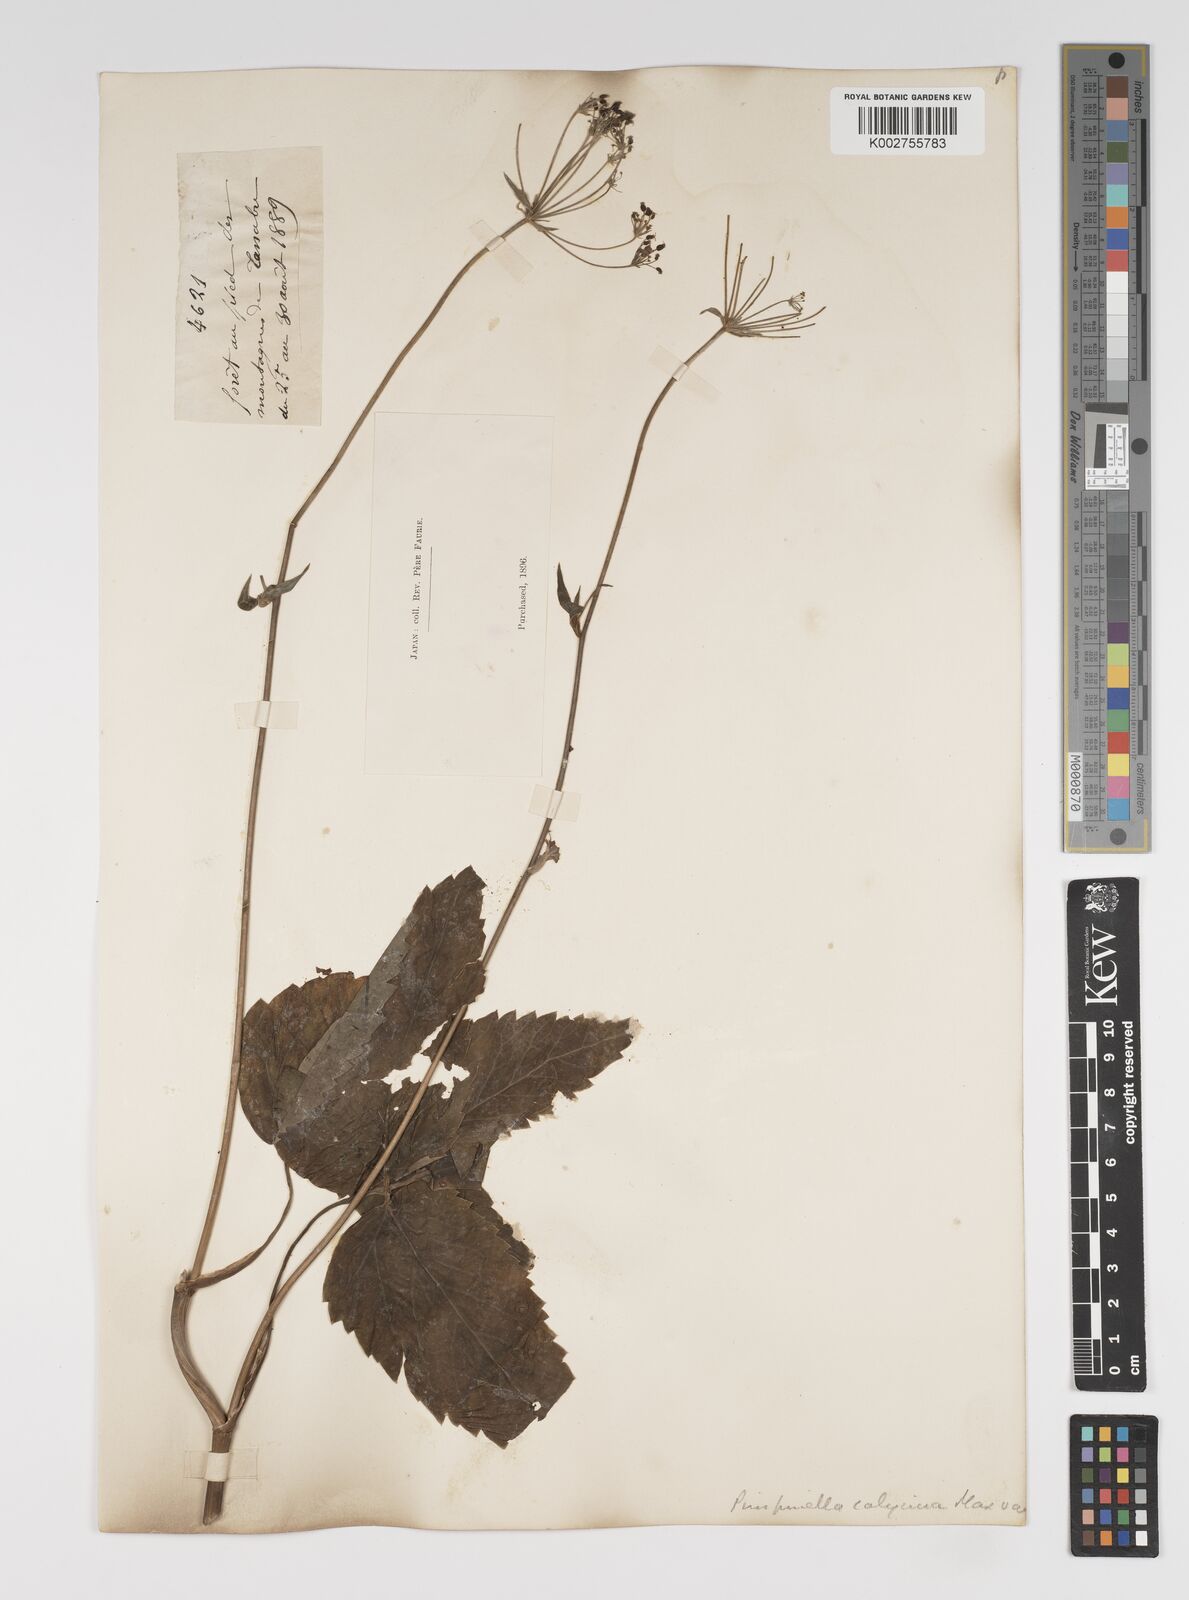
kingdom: Plantae
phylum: Tracheophyta
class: Magnoliopsida
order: Apiales
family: Apiaceae
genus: Spuriopimpinella
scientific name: Spuriopimpinella calycina
